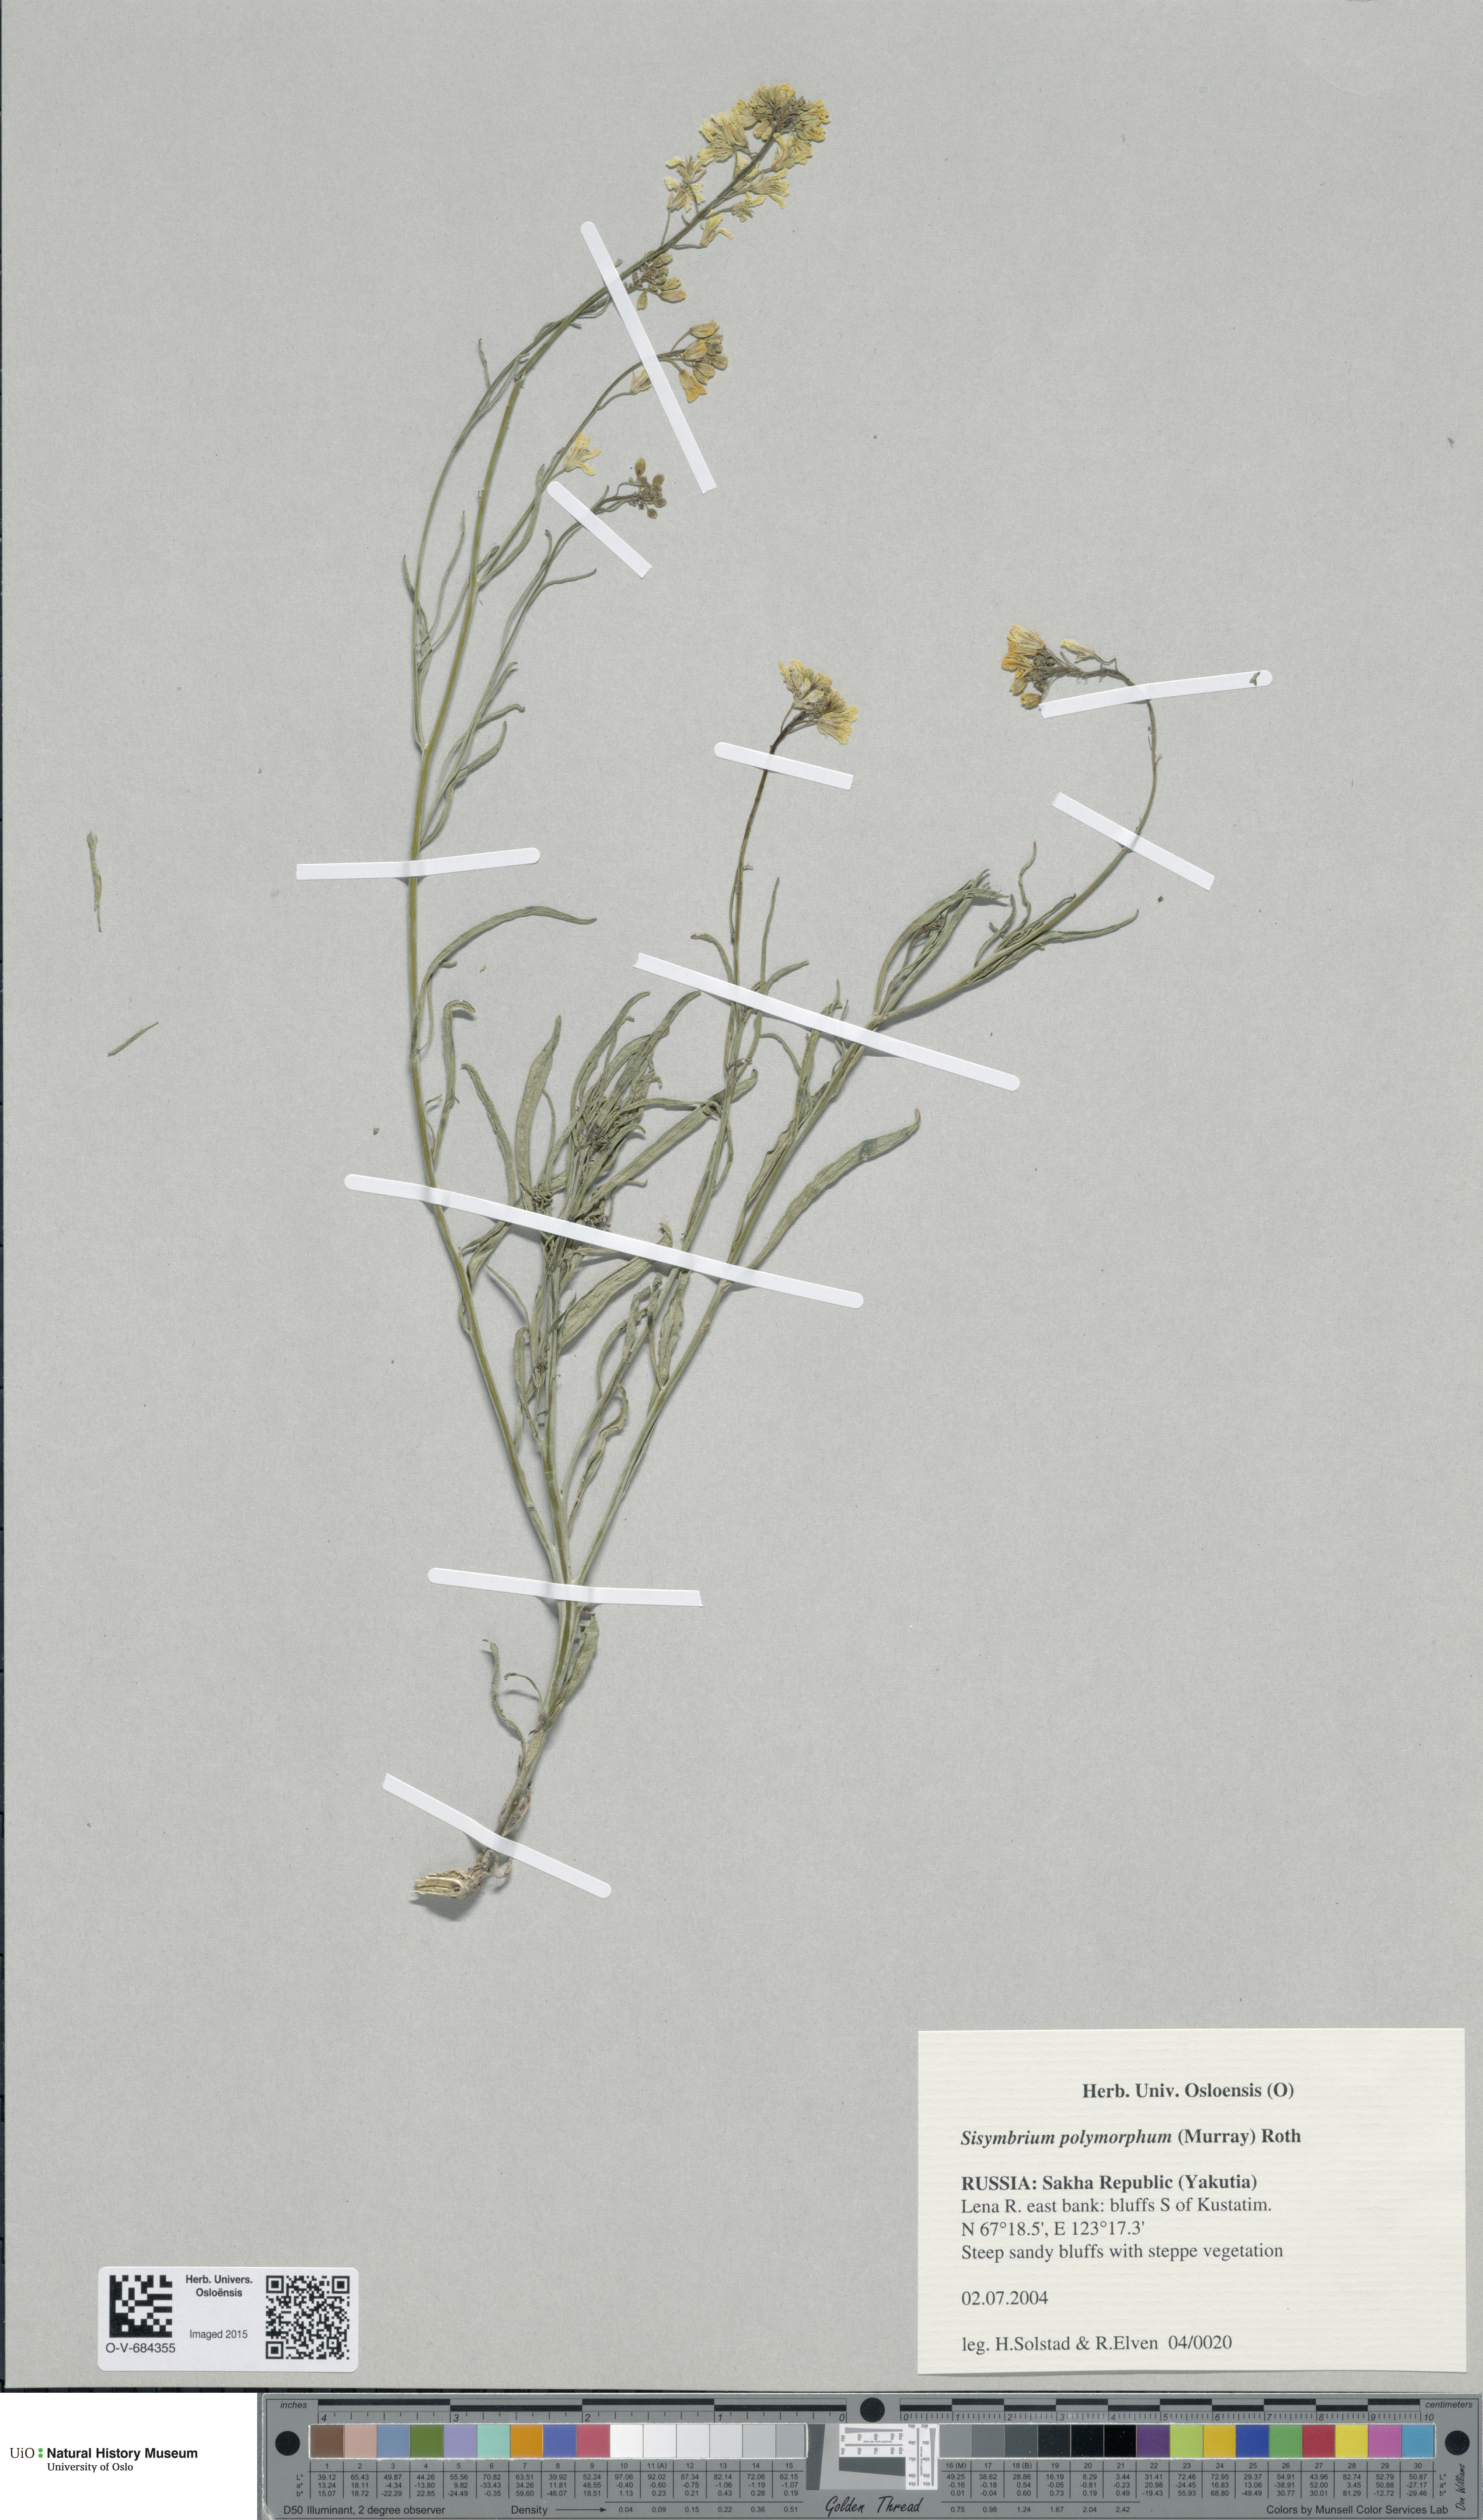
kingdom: Plantae
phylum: Tracheophyta
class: Magnoliopsida
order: Brassicales
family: Brassicaceae
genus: Sisymbrium
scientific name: Sisymbrium polymorphum
